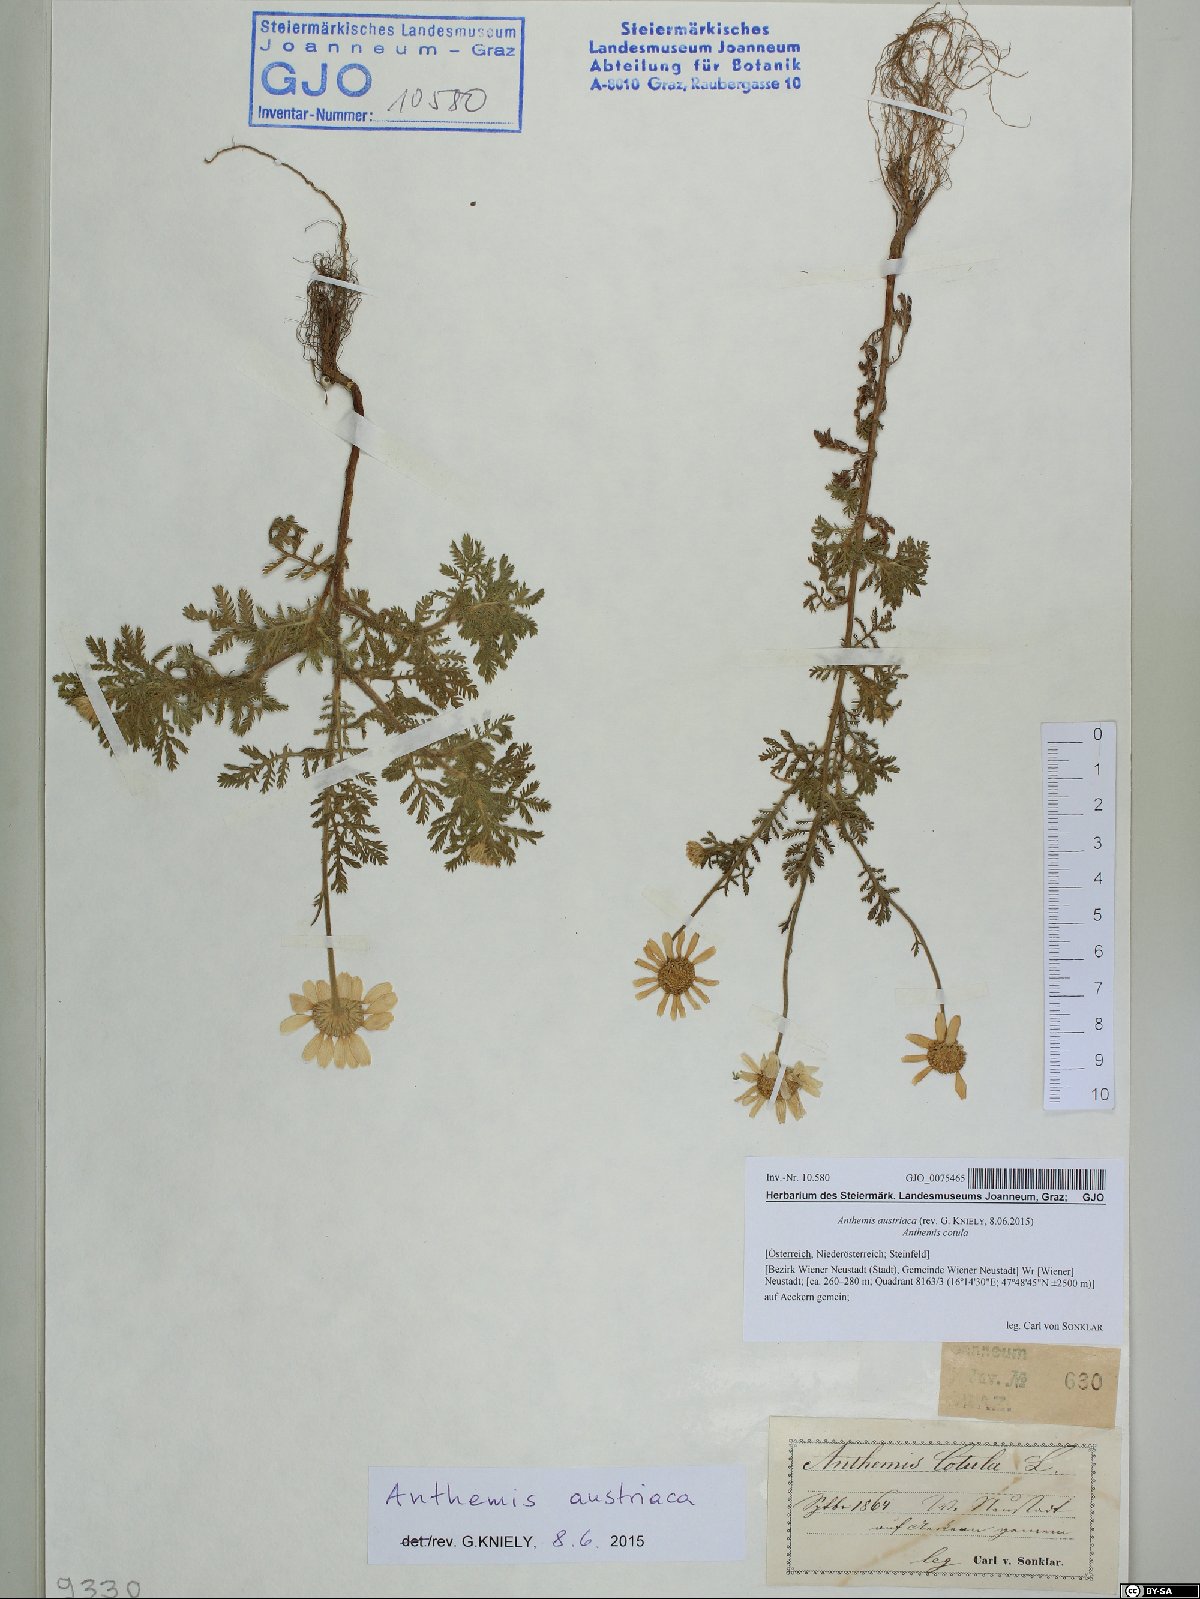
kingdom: Plantae
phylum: Tracheophyta
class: Magnoliopsida
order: Asterales
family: Asteraceae
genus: Cota
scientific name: Cota austriaca
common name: Austrian chamomile
